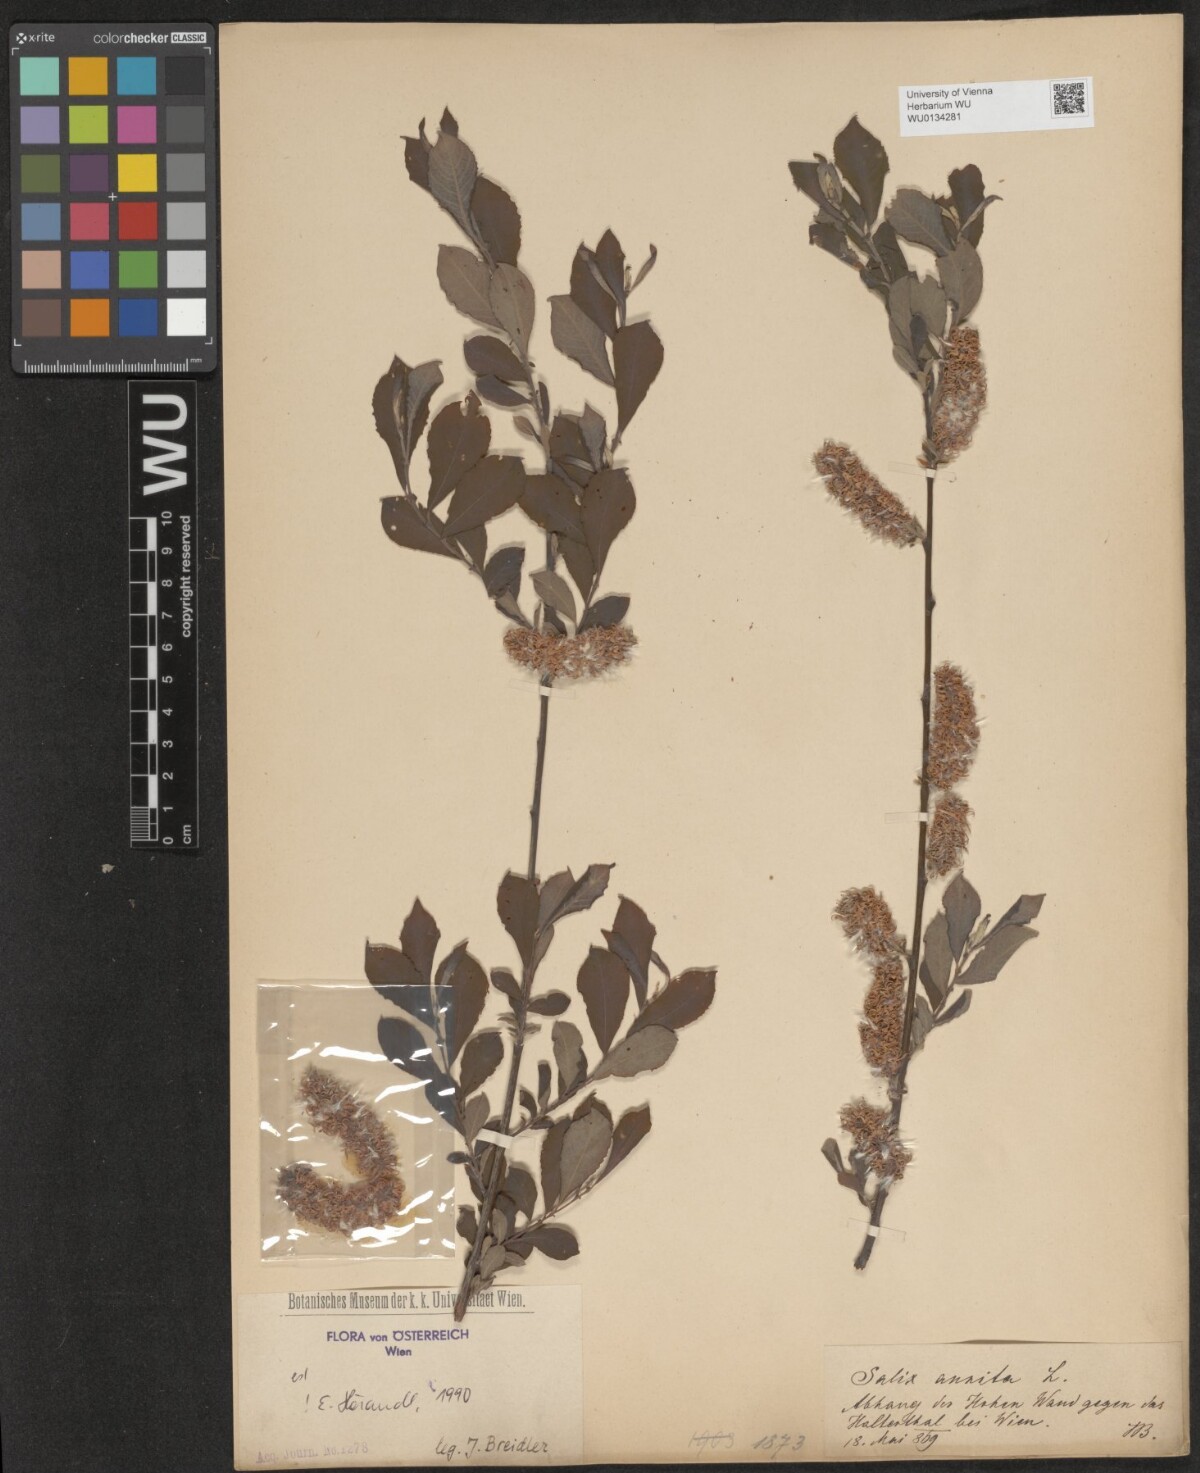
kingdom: Plantae
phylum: Tracheophyta
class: Magnoliopsida
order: Malpighiales
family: Salicaceae
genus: Salix
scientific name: Salix aurita
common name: Eared willow
